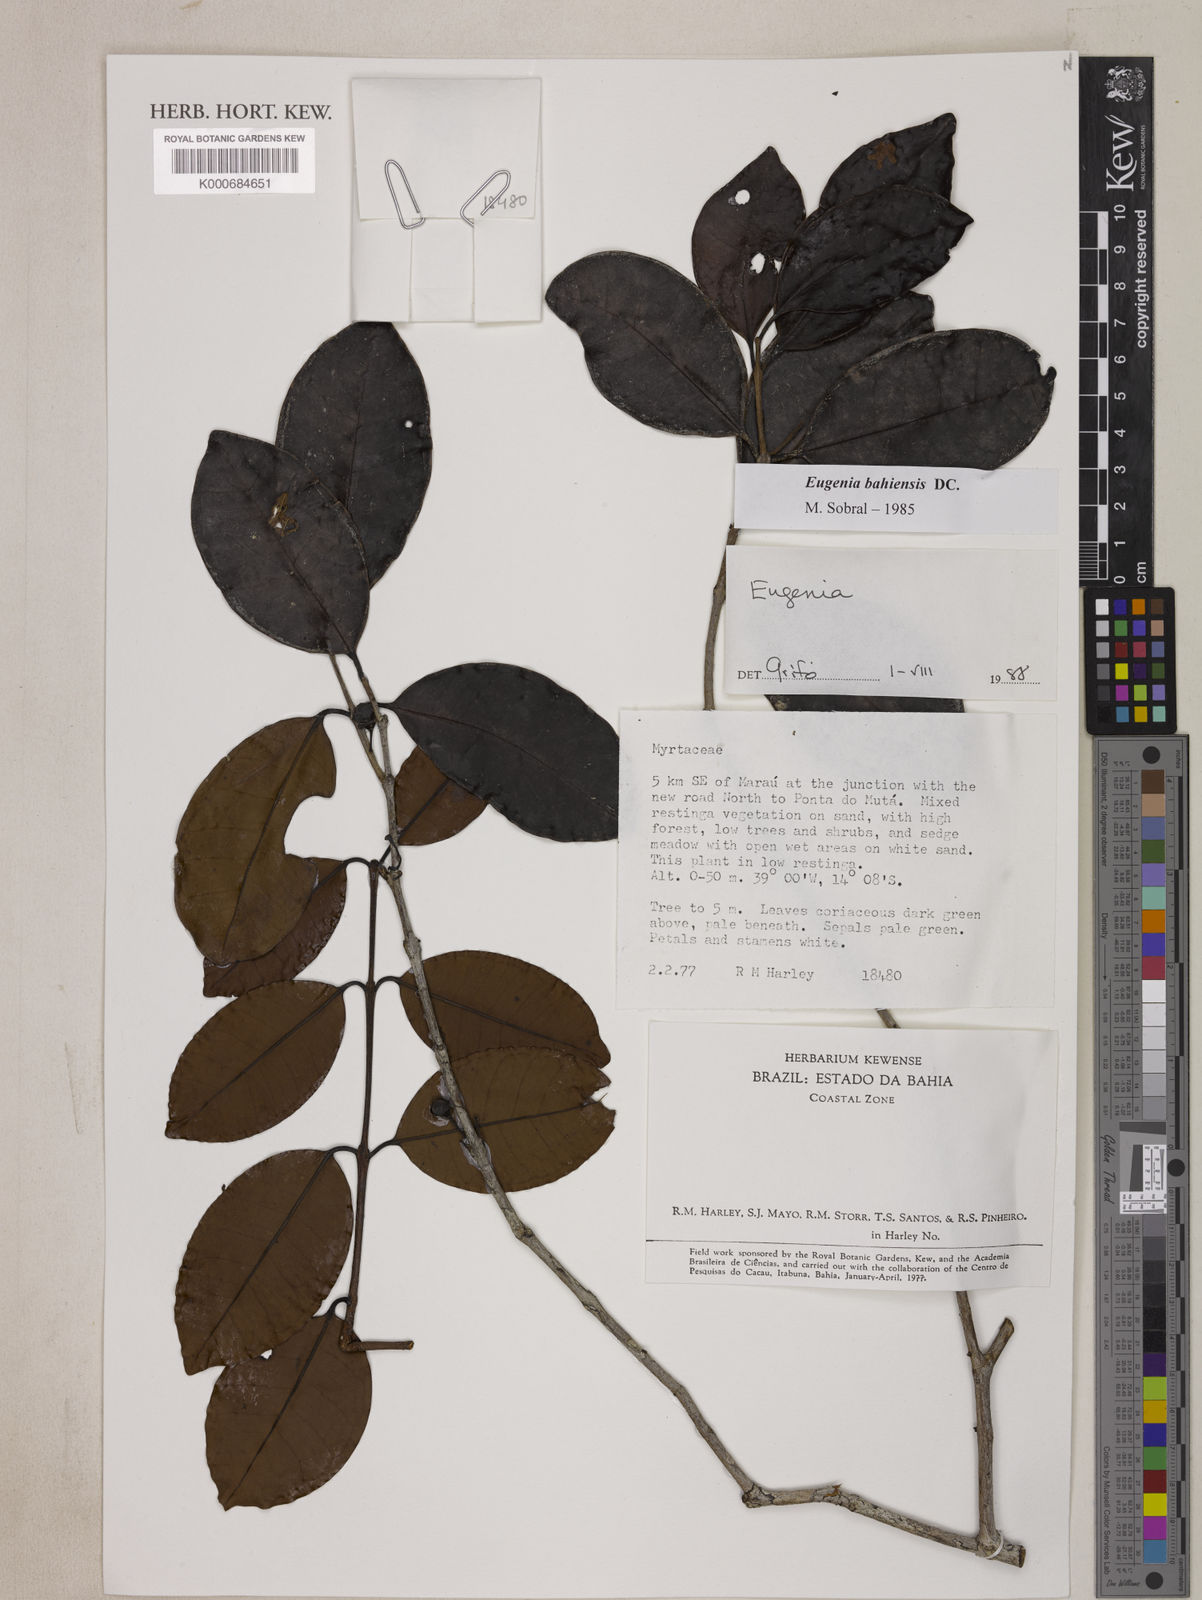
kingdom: Plantae
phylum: Tracheophyta
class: Magnoliopsida
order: Myrtales
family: Myrtaceae
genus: Eugenia
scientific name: Eugenia bahiensis
